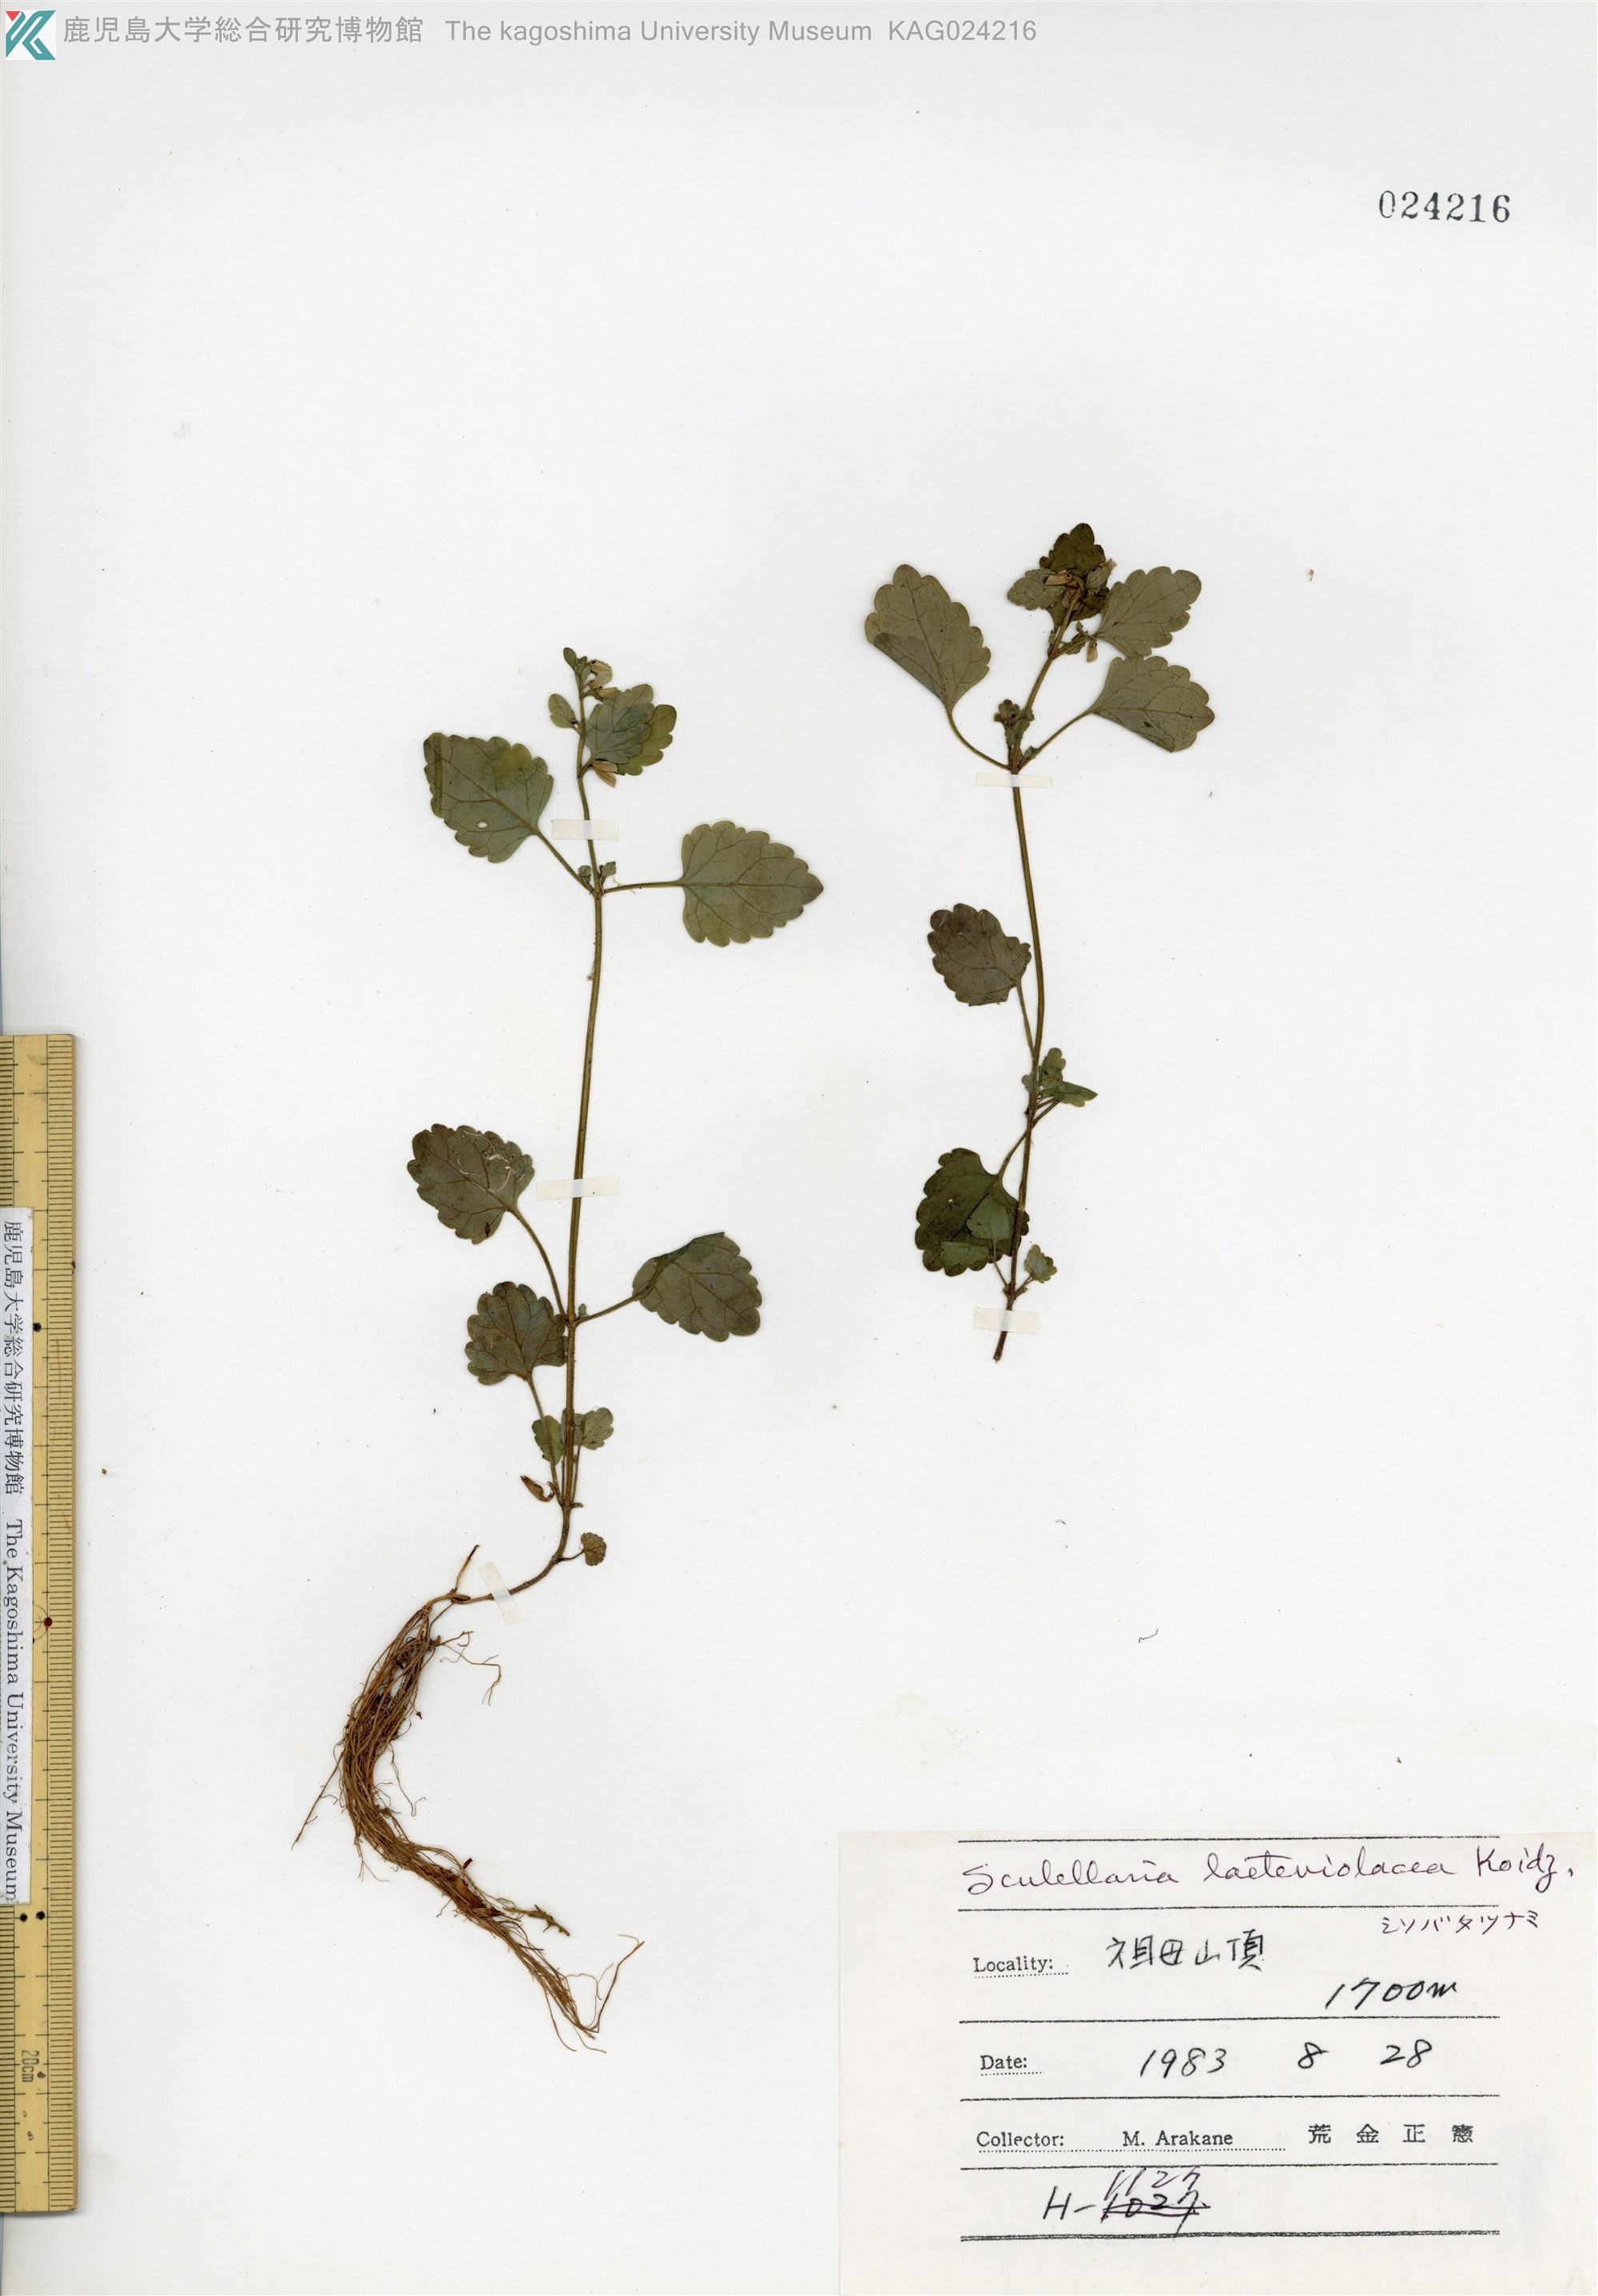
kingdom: Plantae
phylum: Tracheophyta
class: Magnoliopsida
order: Lamiales
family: Lamiaceae
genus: Scutellaria
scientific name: Scutellaria laeteviolacea
